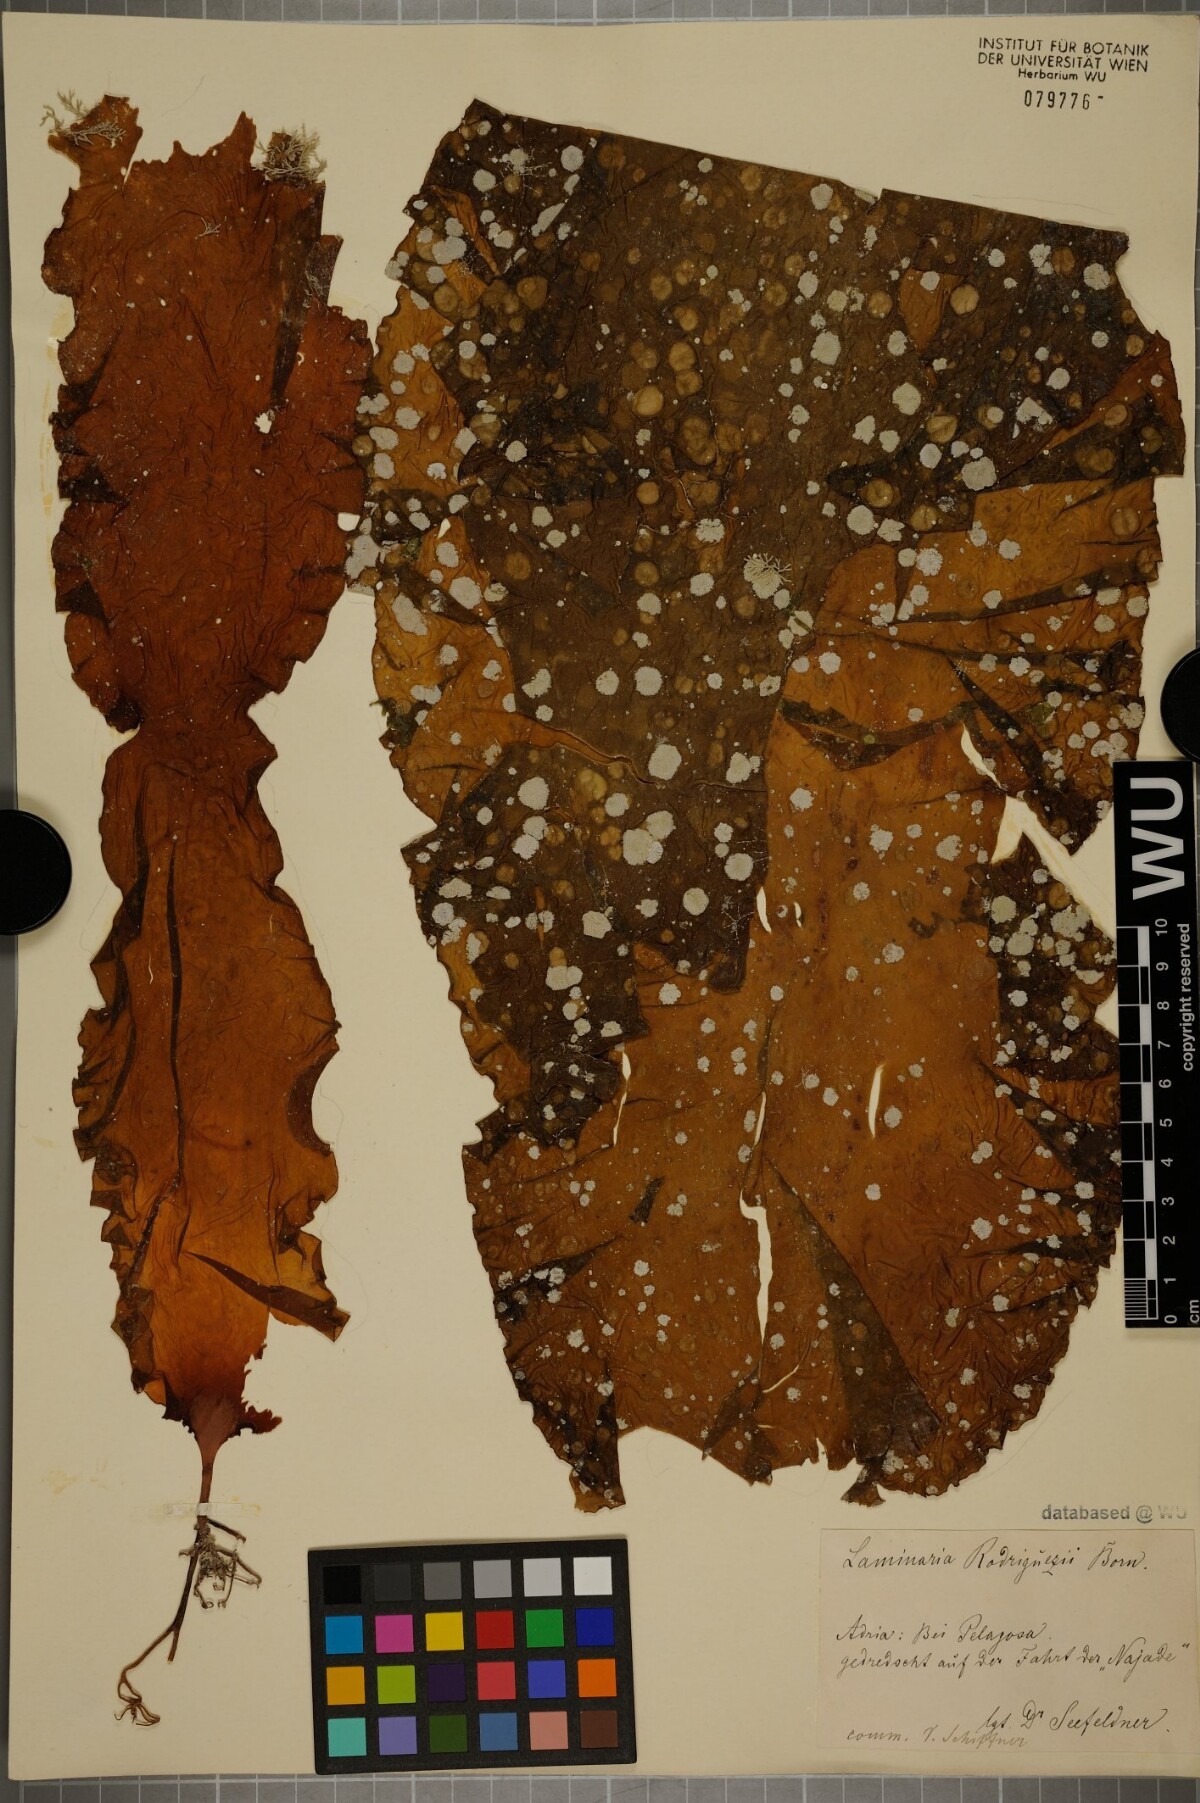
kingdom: Chromista
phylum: Ochrophyta
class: Phaeophyceae
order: Laminariales
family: Laminariaceae
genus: Laminaria
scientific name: Laminaria rodriguezii
